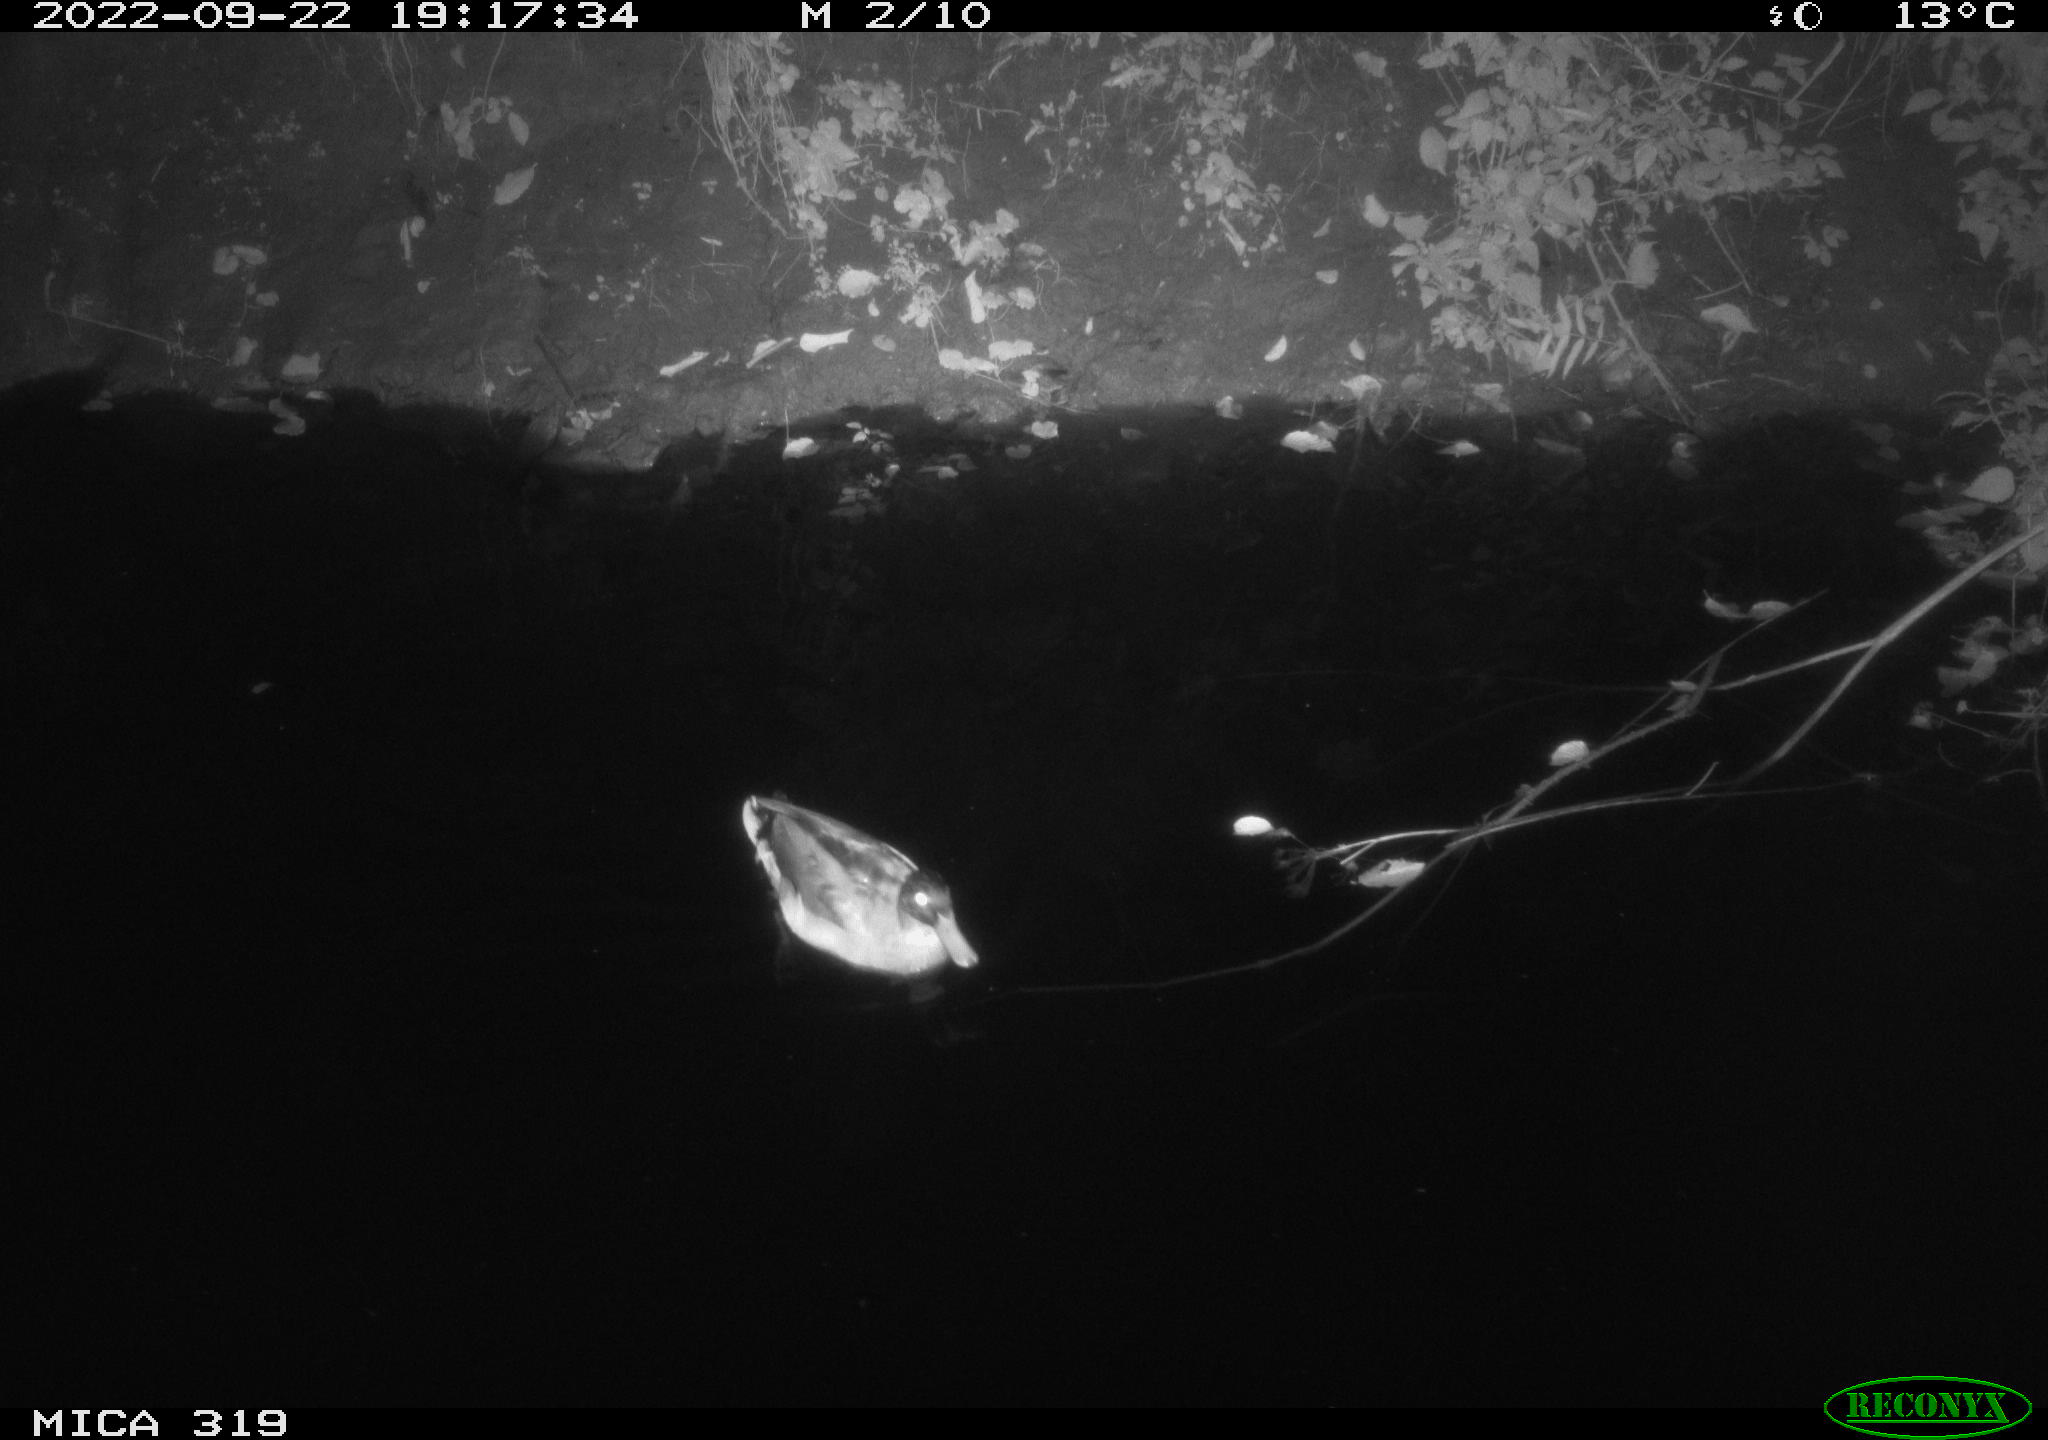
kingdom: Animalia
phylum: Chordata
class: Aves
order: Anseriformes
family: Anatidae
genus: Anas
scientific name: Anas
